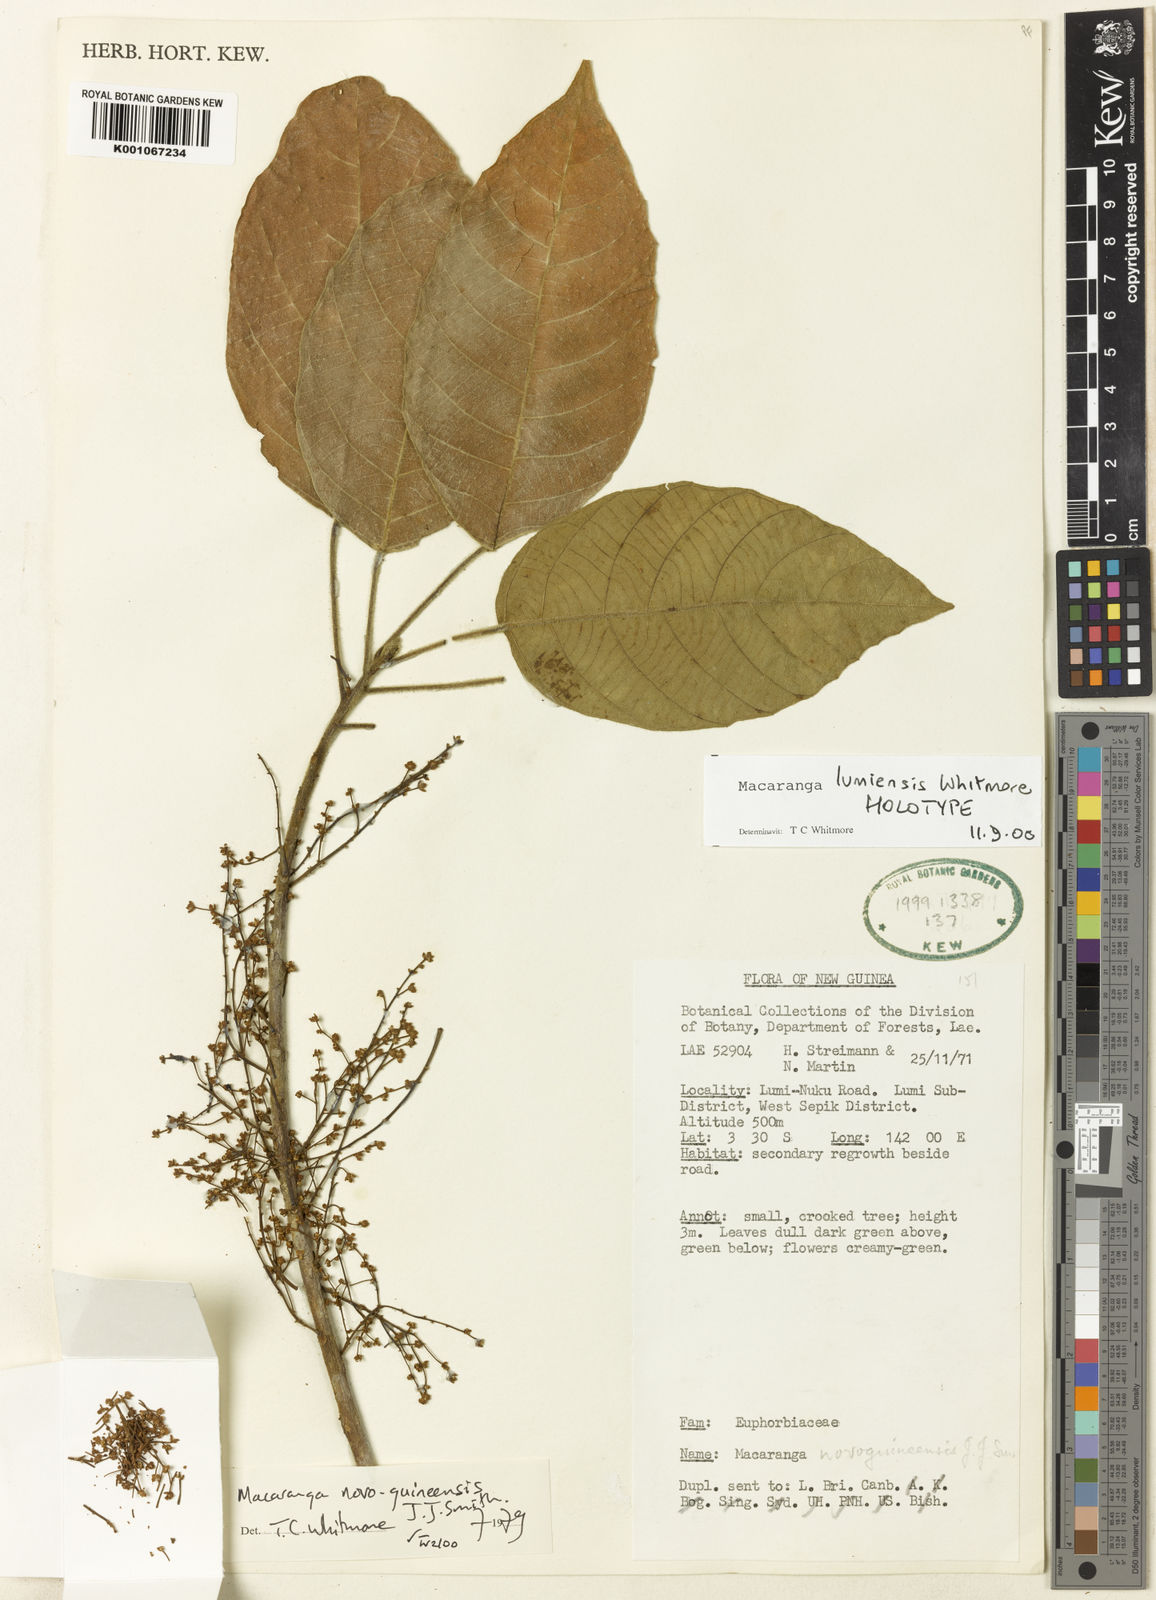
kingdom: Plantae
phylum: Tracheophyta
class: Magnoliopsida
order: Malpighiales
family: Euphorbiaceae
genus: Macaranga
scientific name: Macaranga lumiensis
